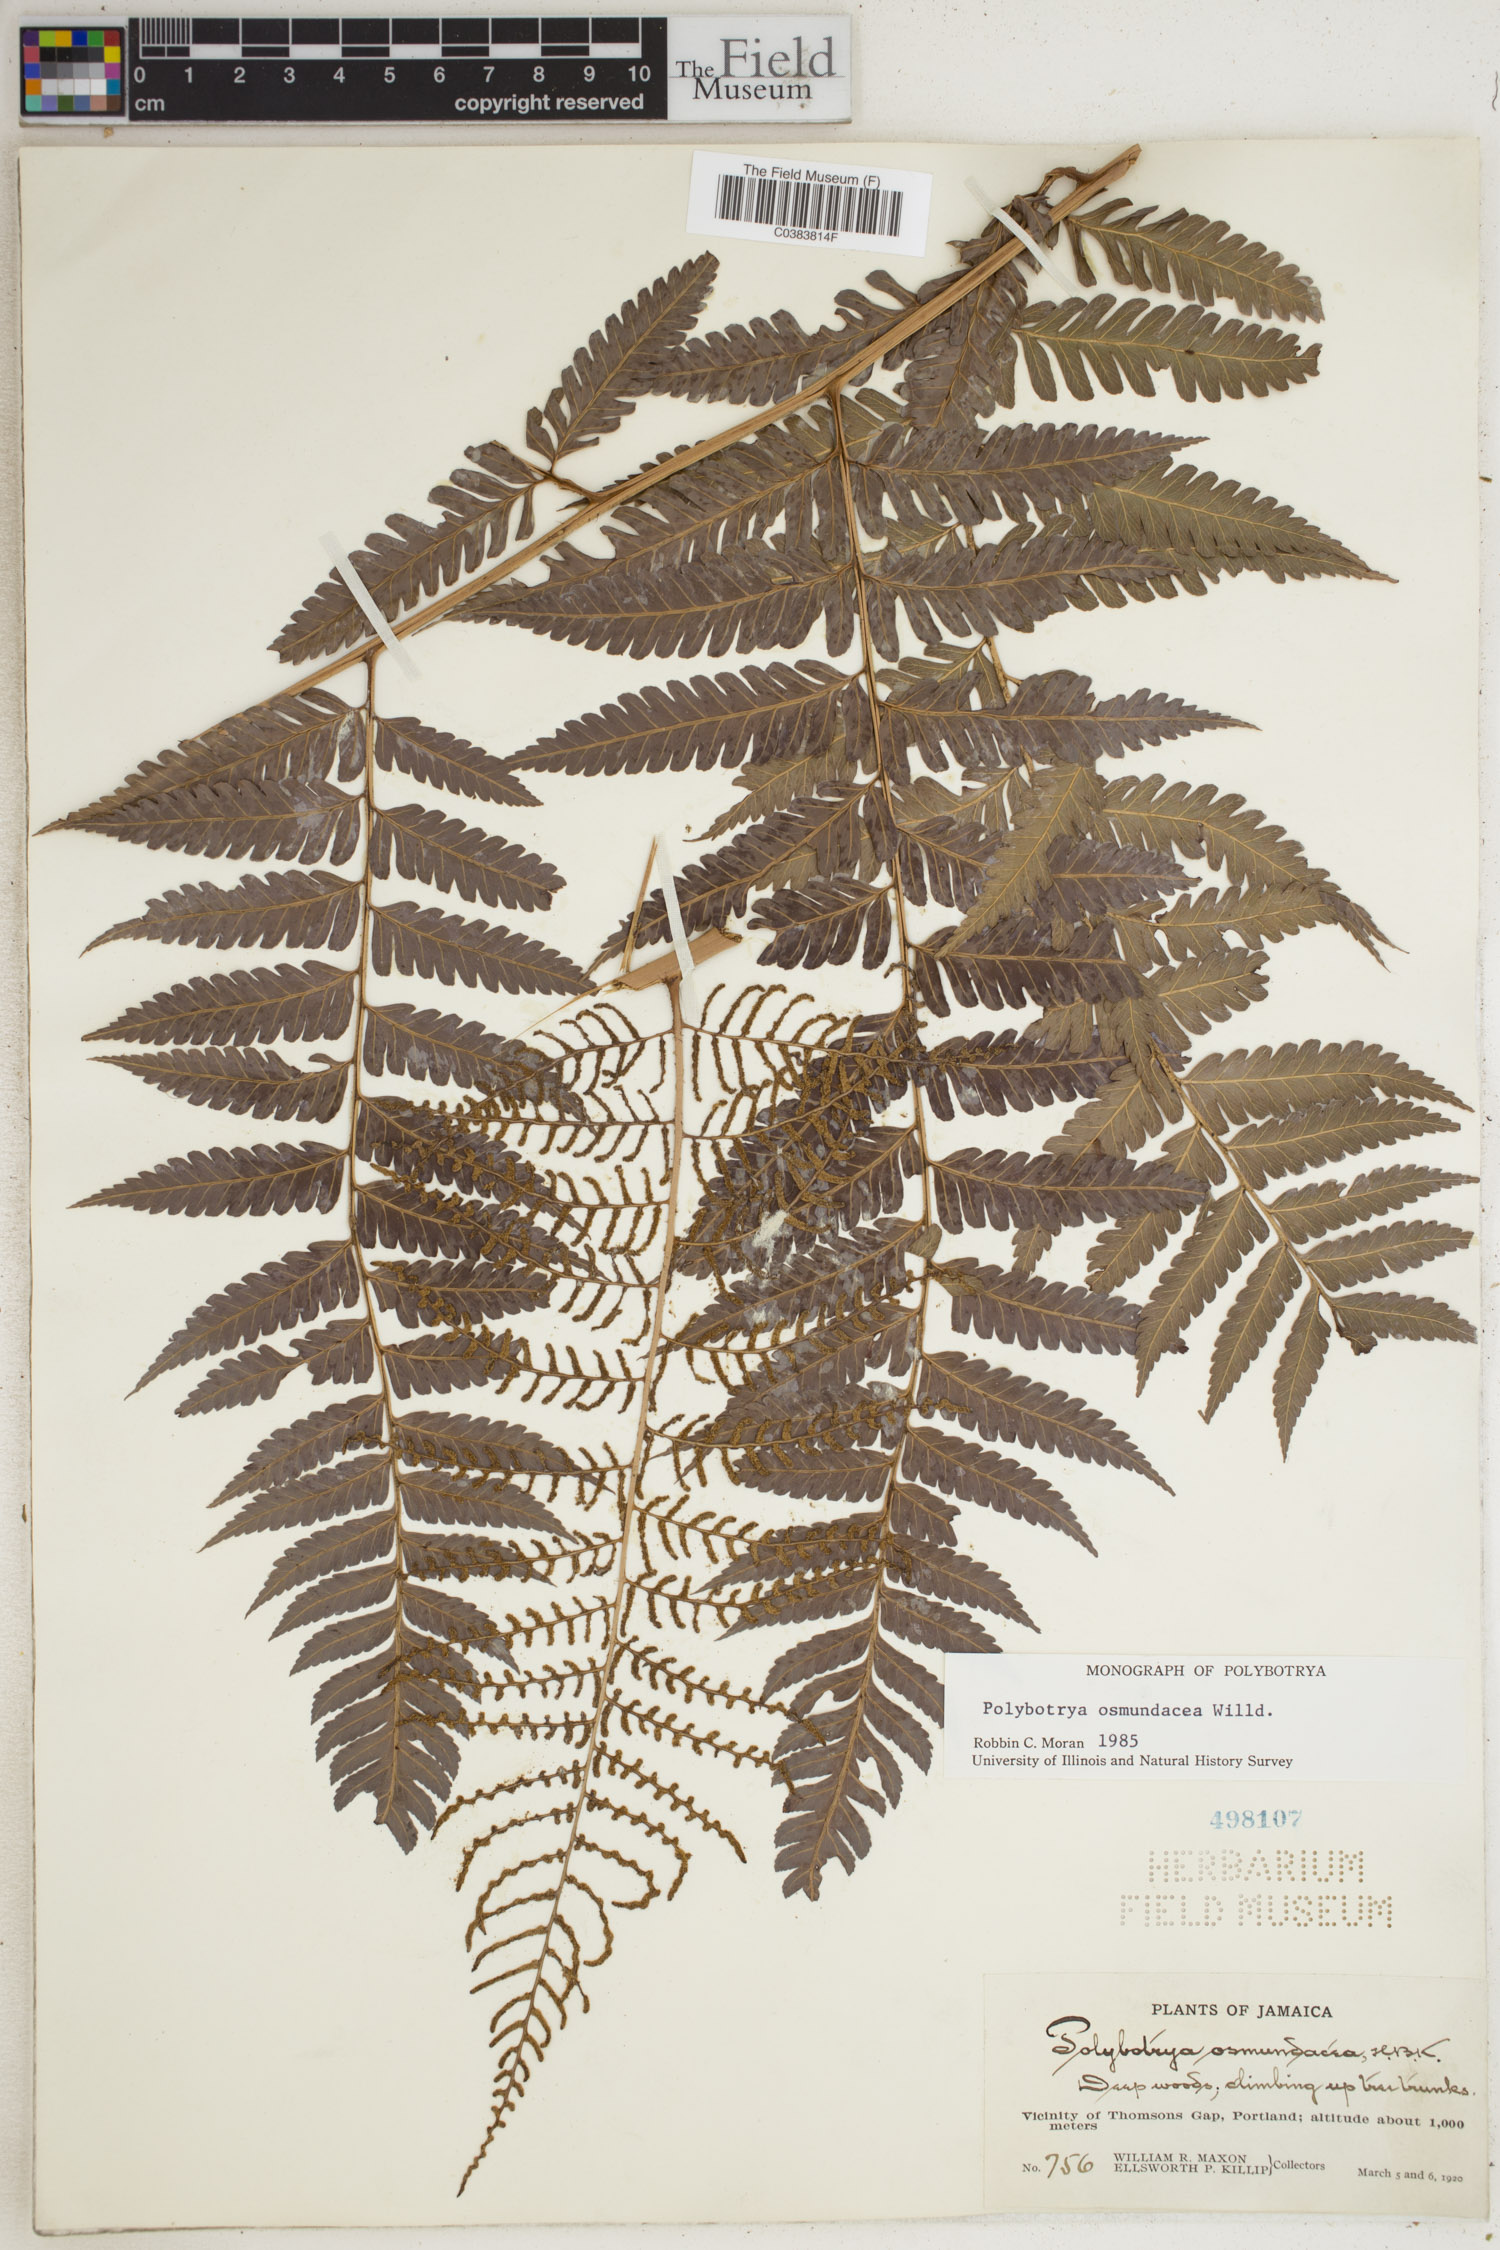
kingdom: Plantae
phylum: Tracheophyta
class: Polypodiopsida
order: Polypodiales
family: Dryopteridaceae
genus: Polybotrya
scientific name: Polybotrya osmundacea
